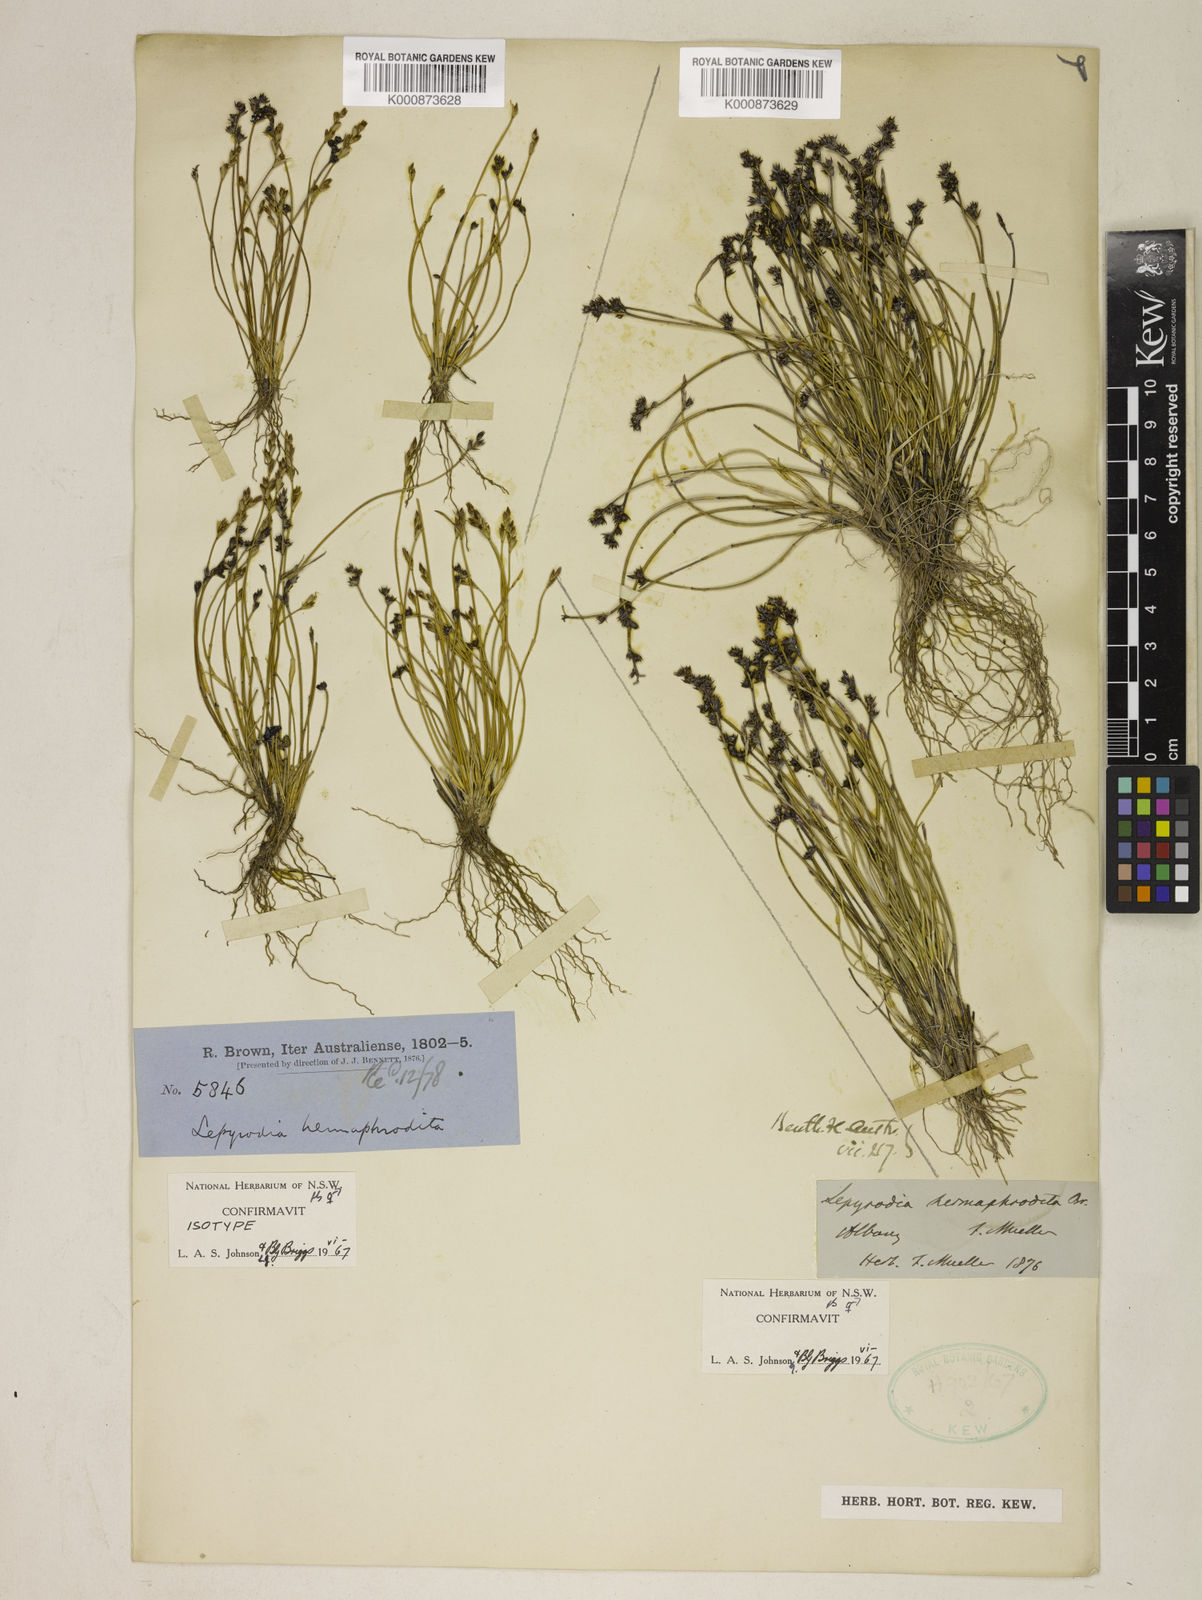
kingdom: Plantae
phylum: Tracheophyta
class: Liliopsida
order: Poales
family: Restionaceae
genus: Lepyrodia
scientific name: Lepyrodia hermaphrodita
